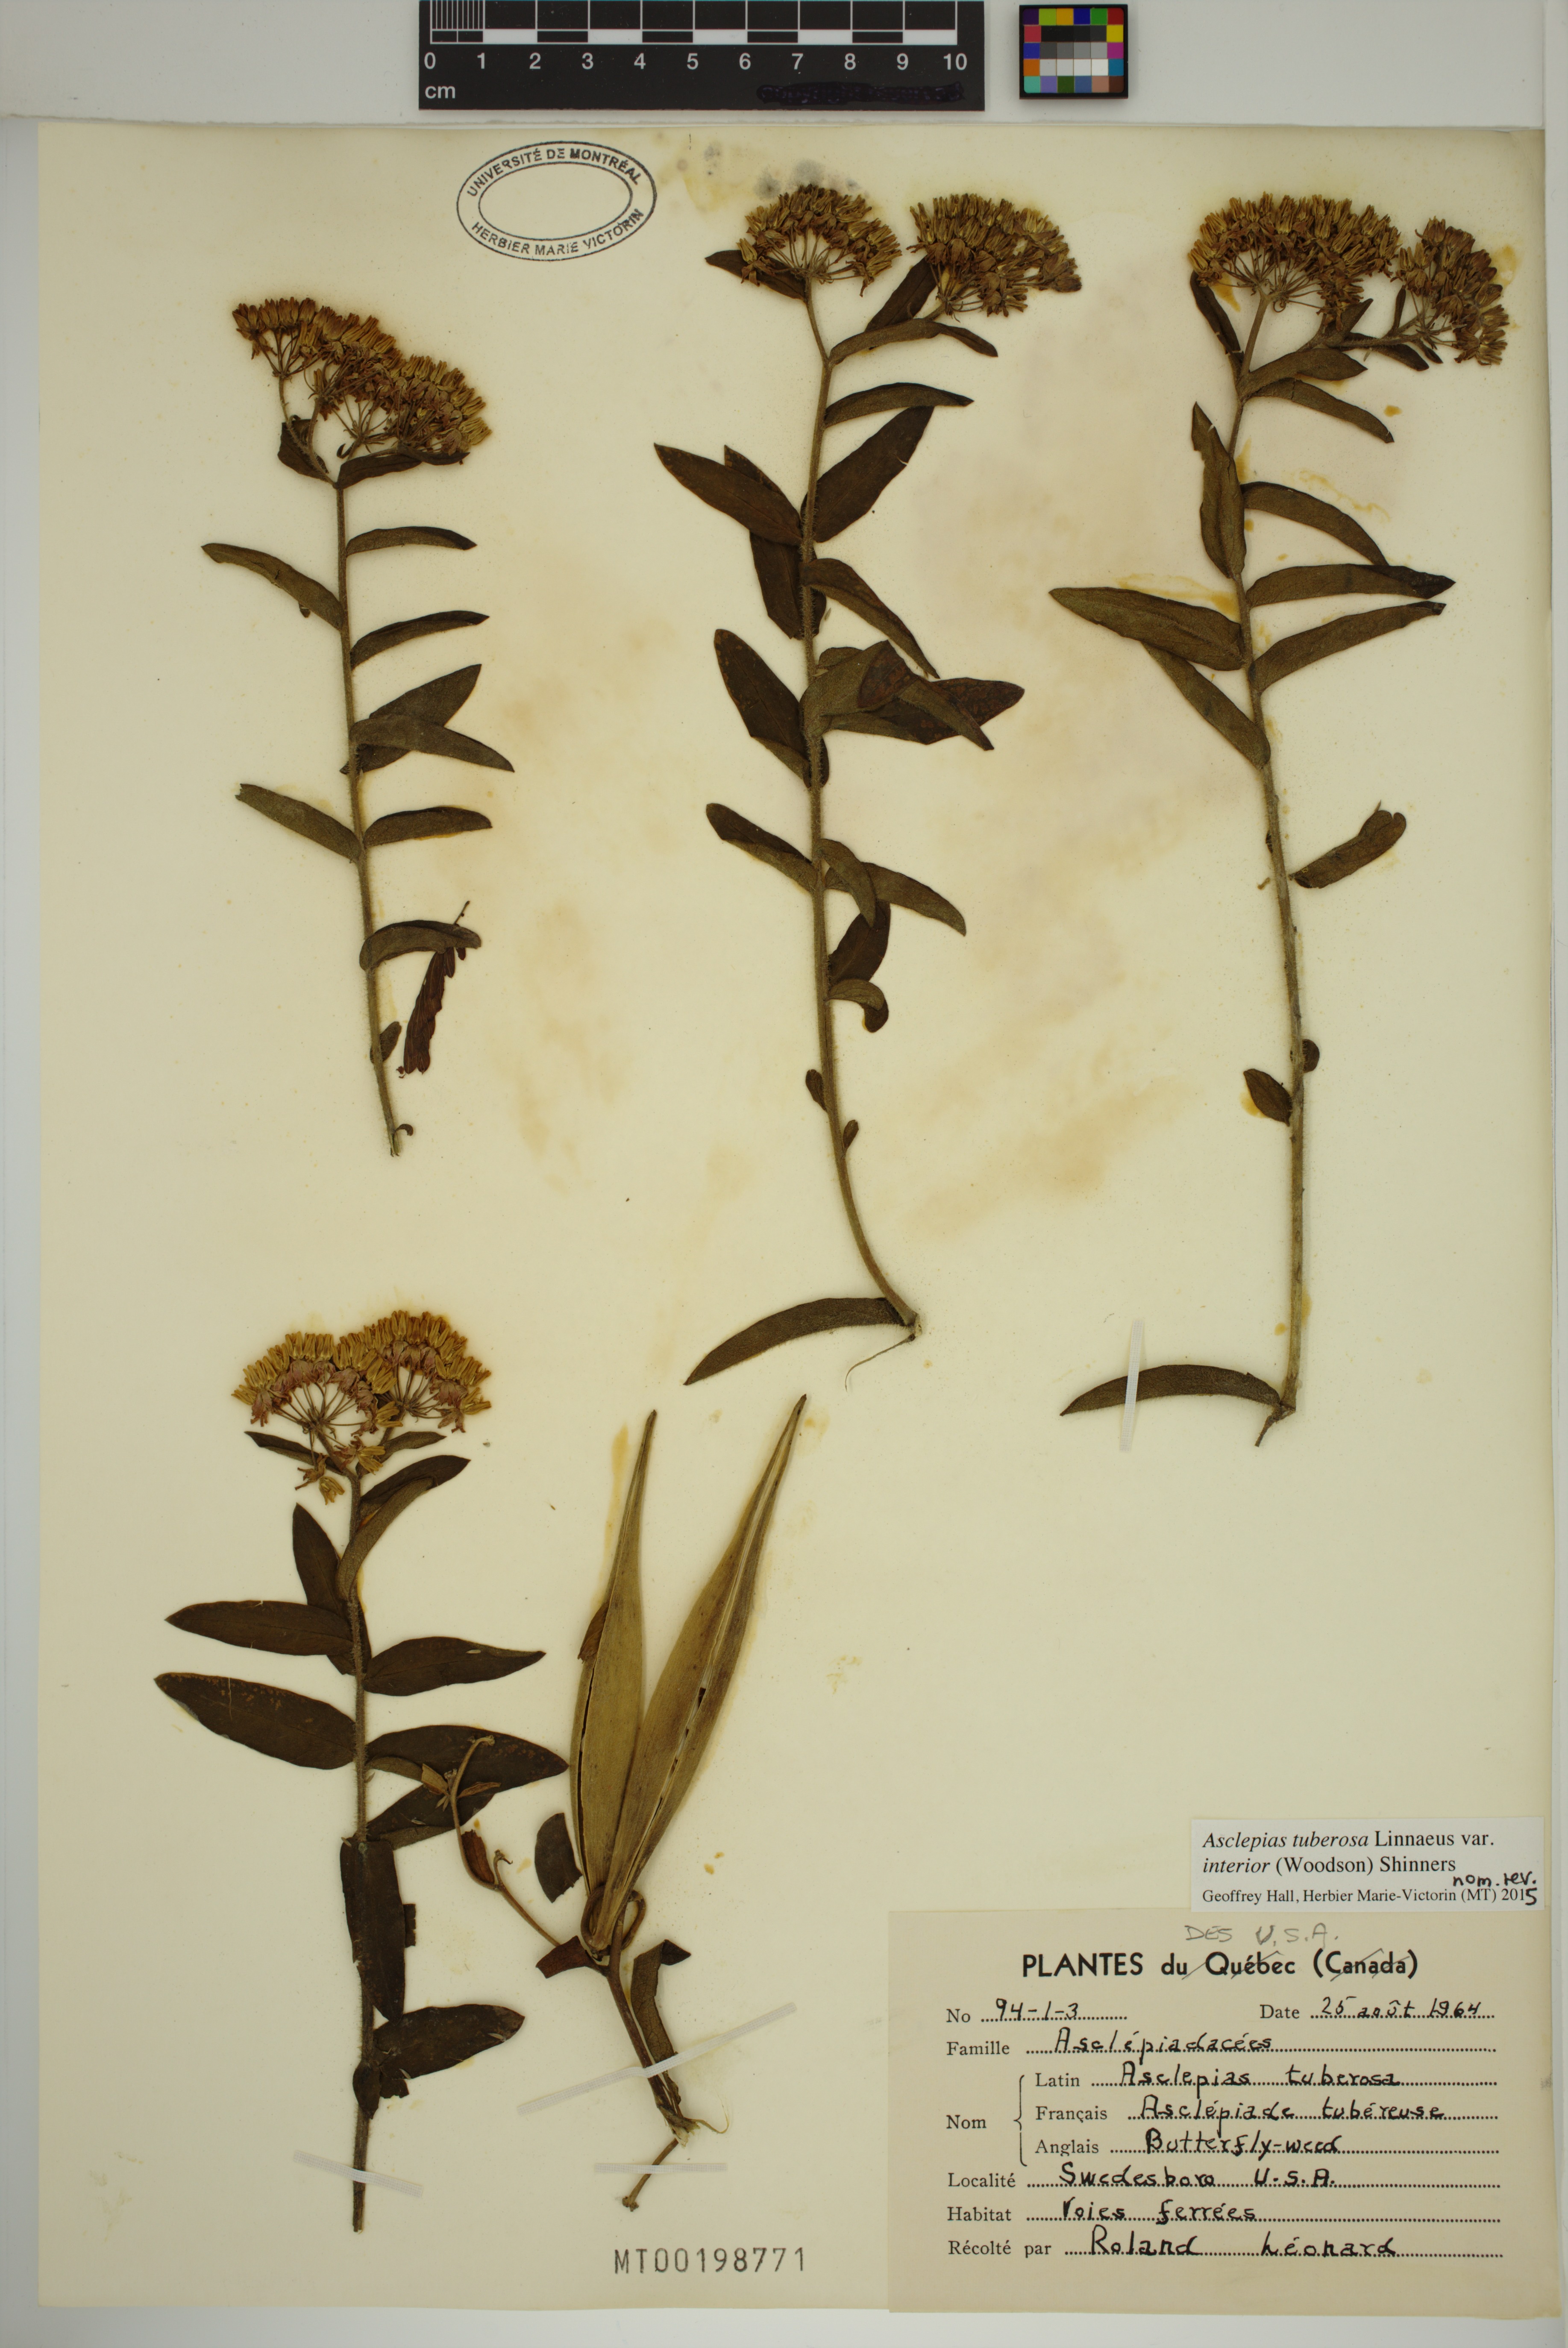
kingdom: Plantae
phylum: Tracheophyta
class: Magnoliopsida
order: Gentianales
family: Apocynaceae
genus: Asclepias
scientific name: Asclepias tuberosa
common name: Butterfly milkweed
